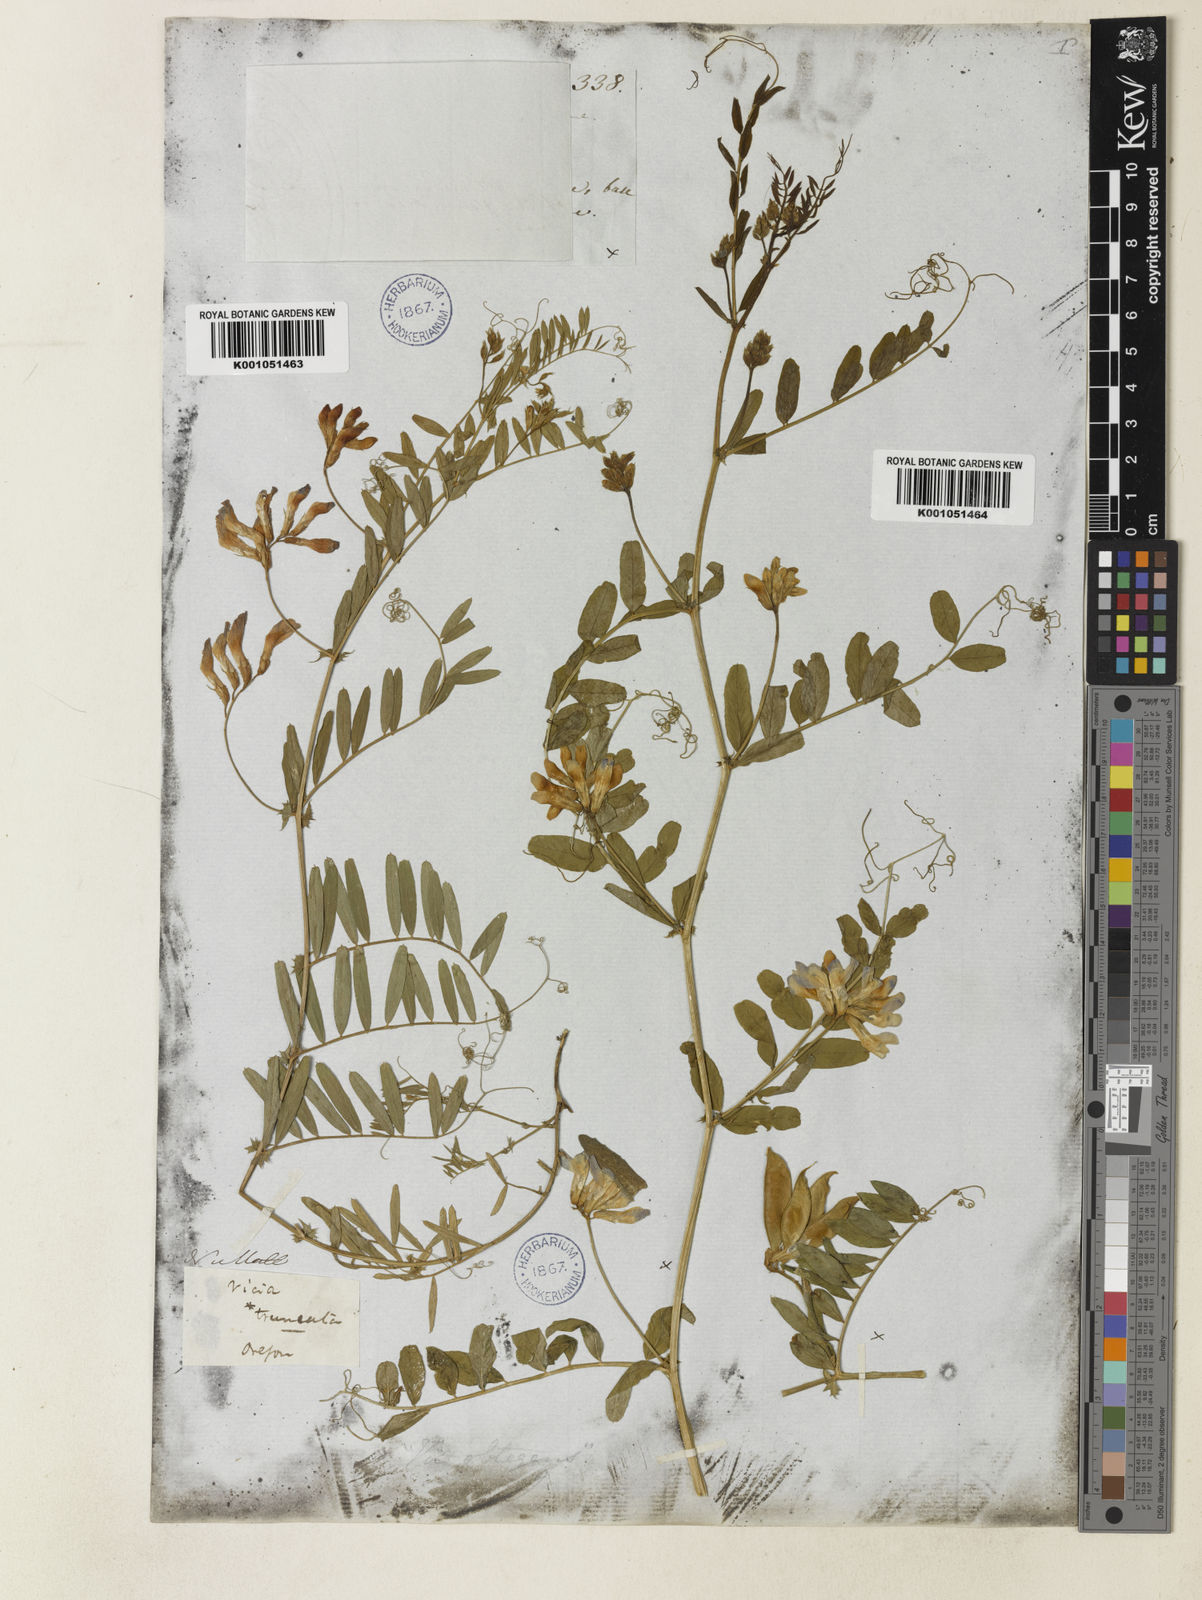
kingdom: Plantae
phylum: Tracheophyta
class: Magnoliopsida
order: Fabales
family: Fabaceae
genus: Vicia
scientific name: Vicia americana
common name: American vetch
